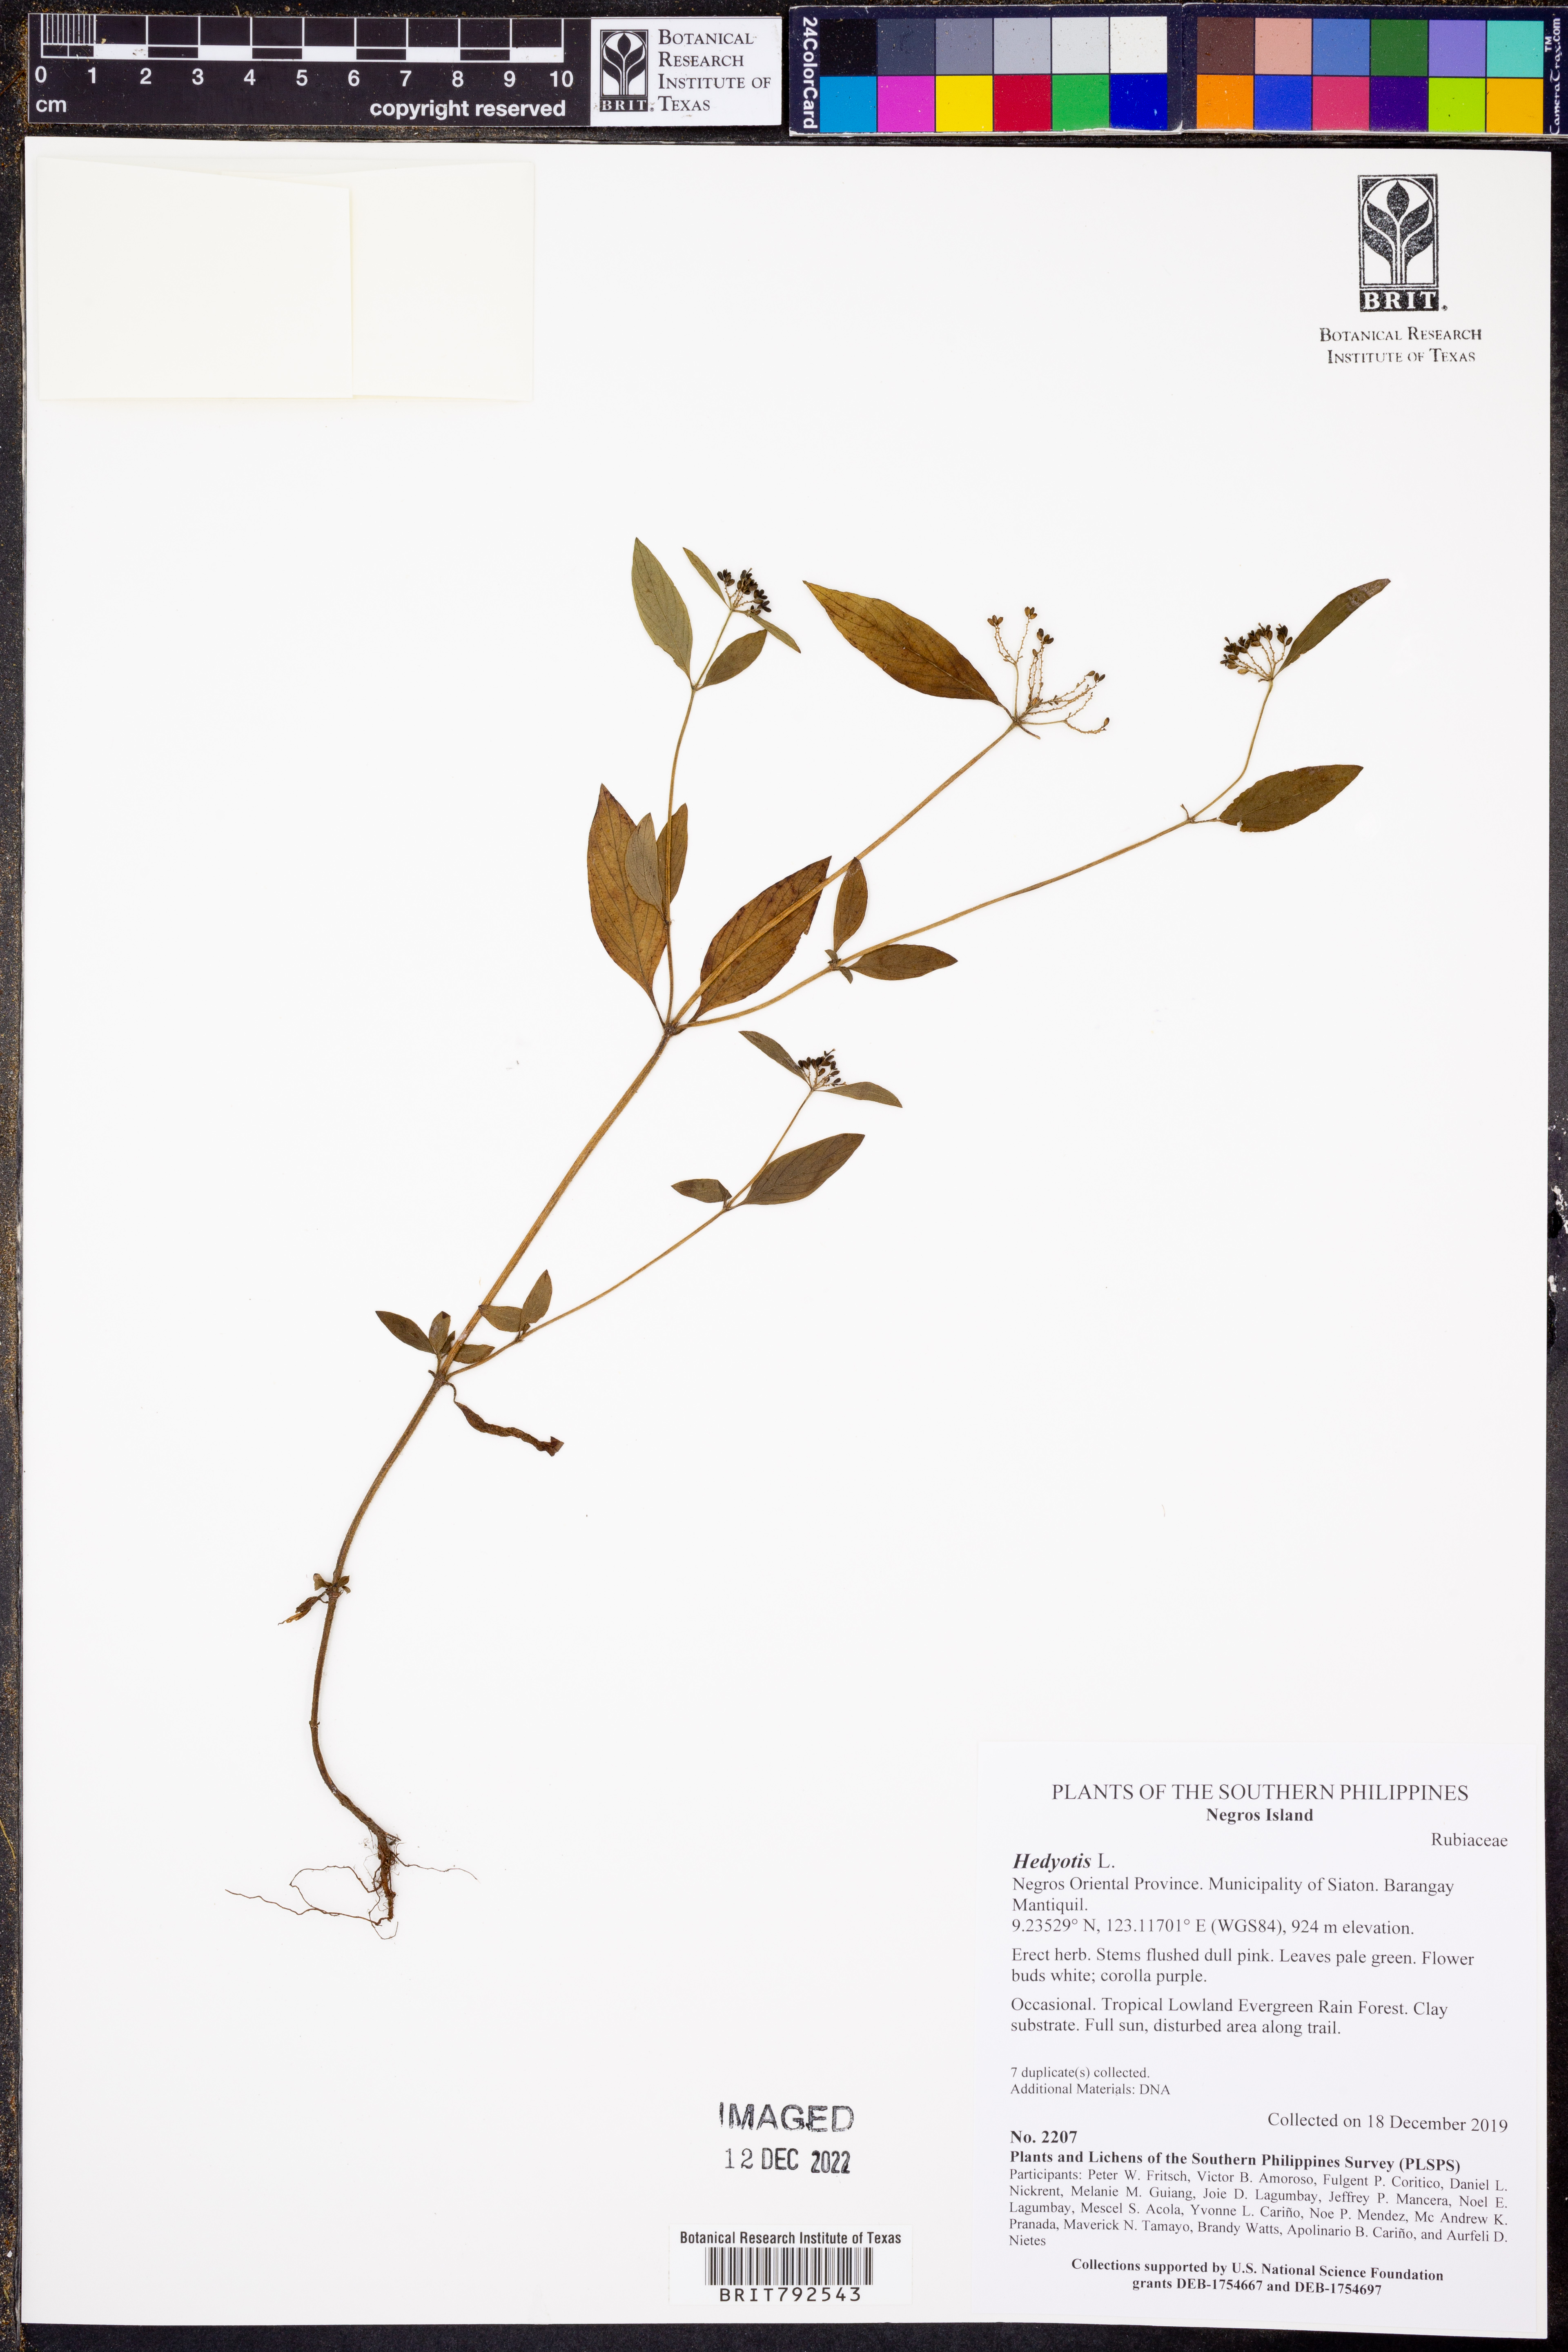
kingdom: Plantae
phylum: Tracheophyta
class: Magnoliopsida
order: Gentianales
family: Rubiaceae
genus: Hedyotis
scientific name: Hedyotis
